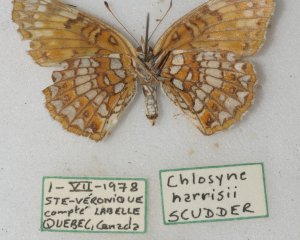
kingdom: Animalia
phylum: Arthropoda
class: Insecta
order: Lepidoptera
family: Nymphalidae
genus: Chlosyne
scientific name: Chlosyne harrisii
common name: Harris's Checkerspot
